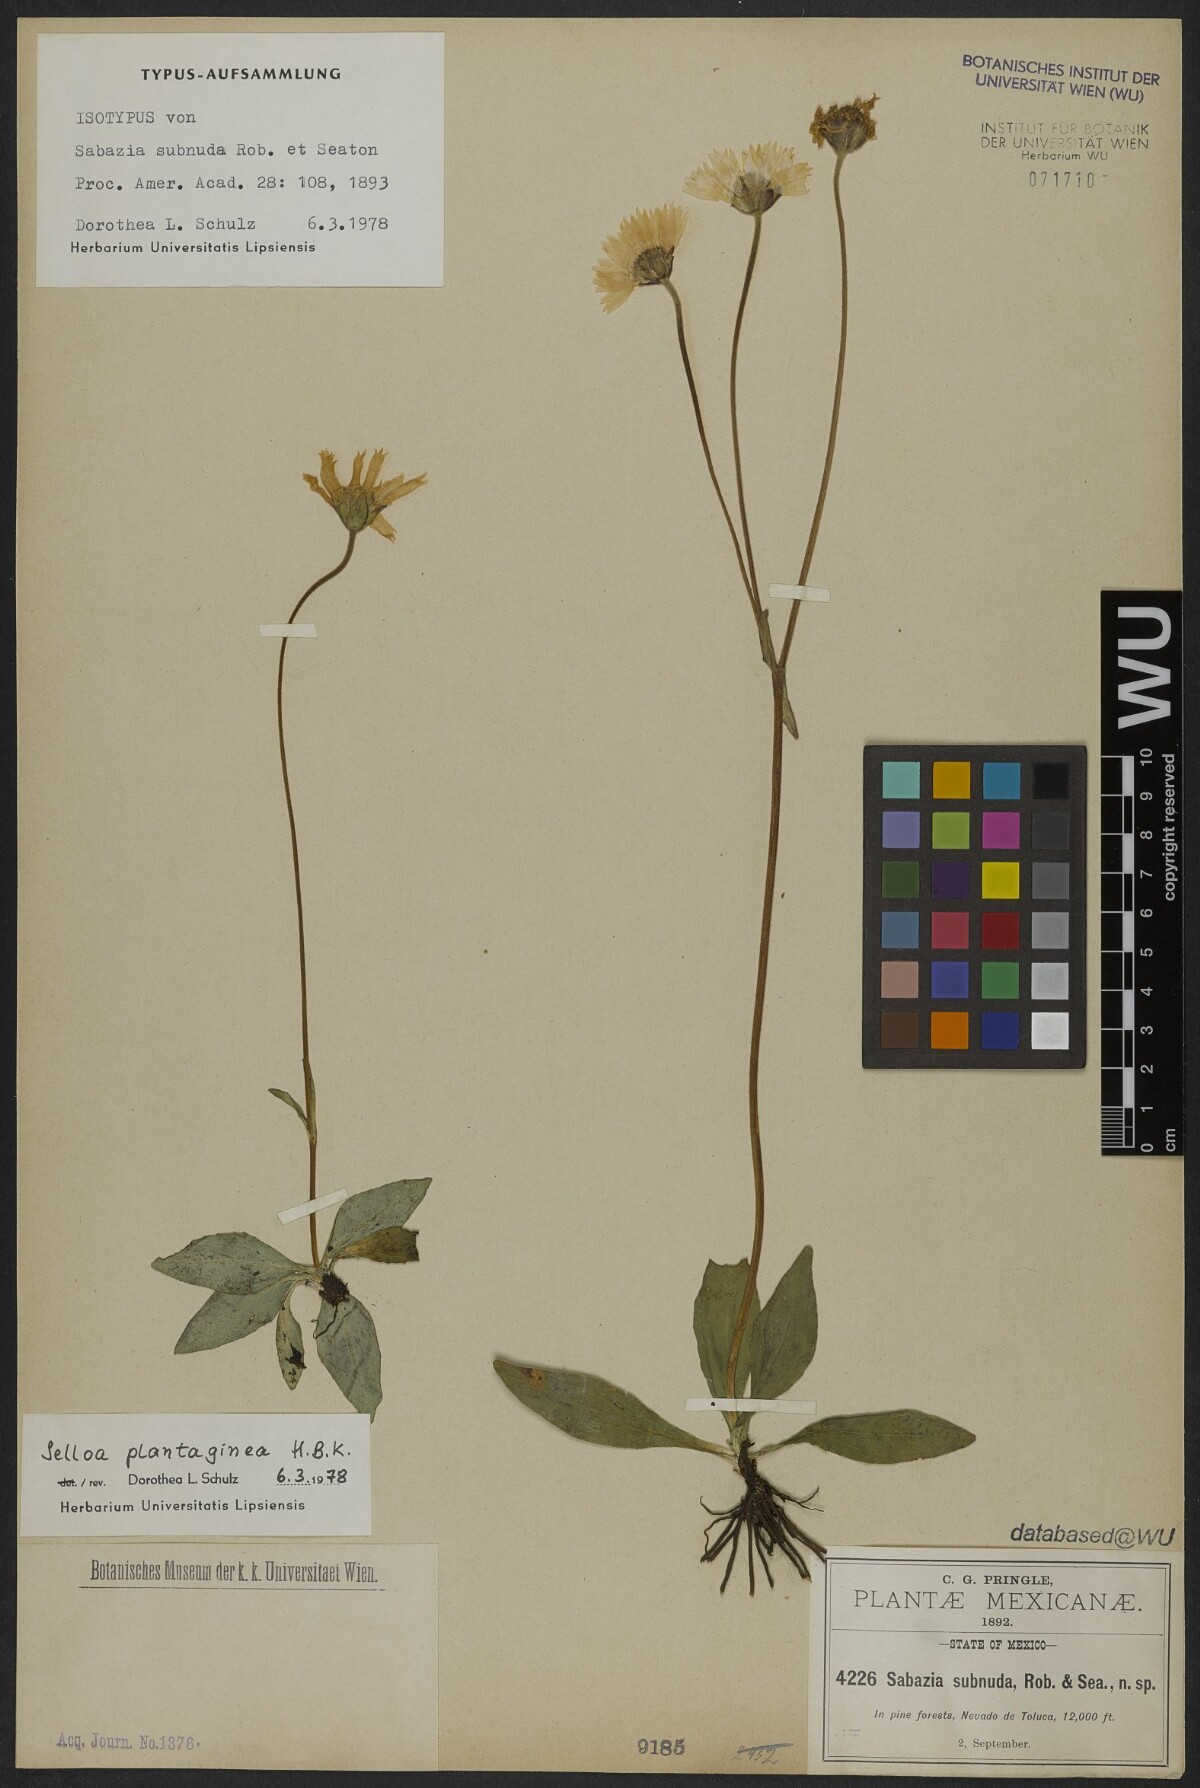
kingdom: Plantae
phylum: Tracheophyta
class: Magnoliopsida
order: Asterales
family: Asteraceae
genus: Selloa
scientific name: Selloa plantaginea
